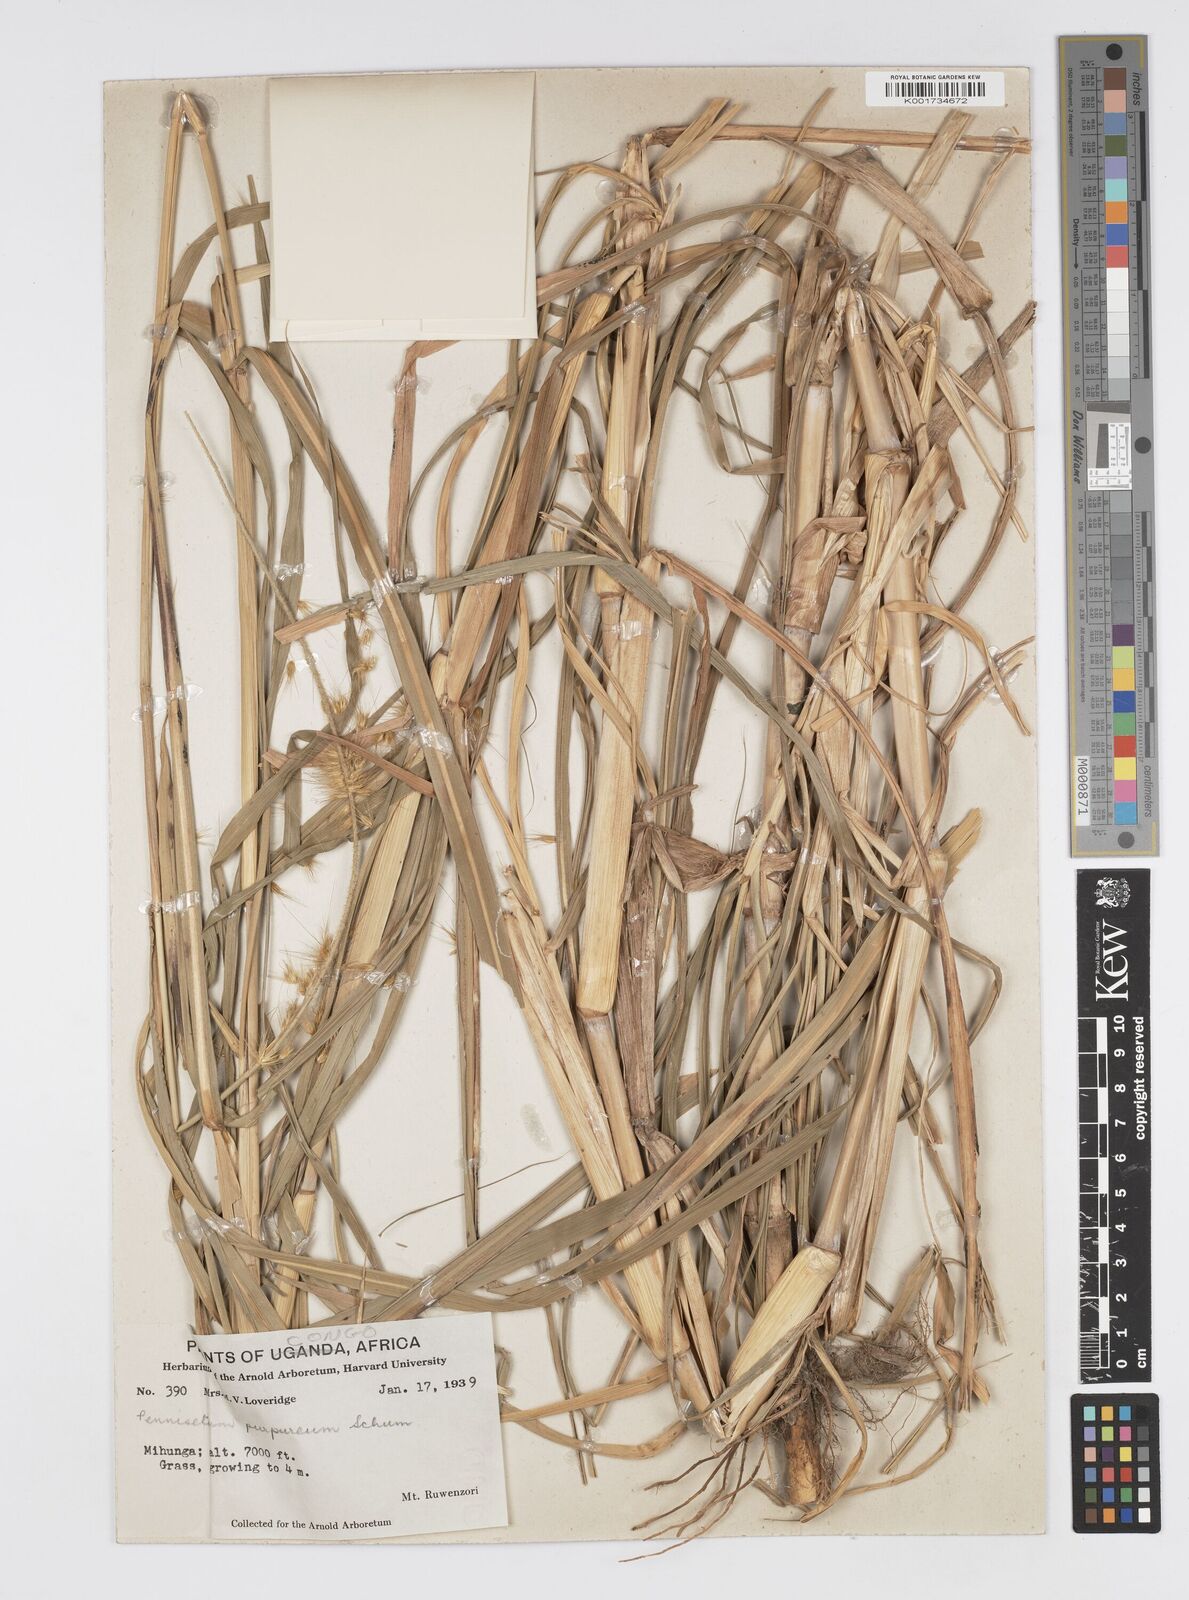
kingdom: Plantae
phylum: Tracheophyta
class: Liliopsida
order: Poales
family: Poaceae
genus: Cenchrus
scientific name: Cenchrus purpureus
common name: Elephant grass
